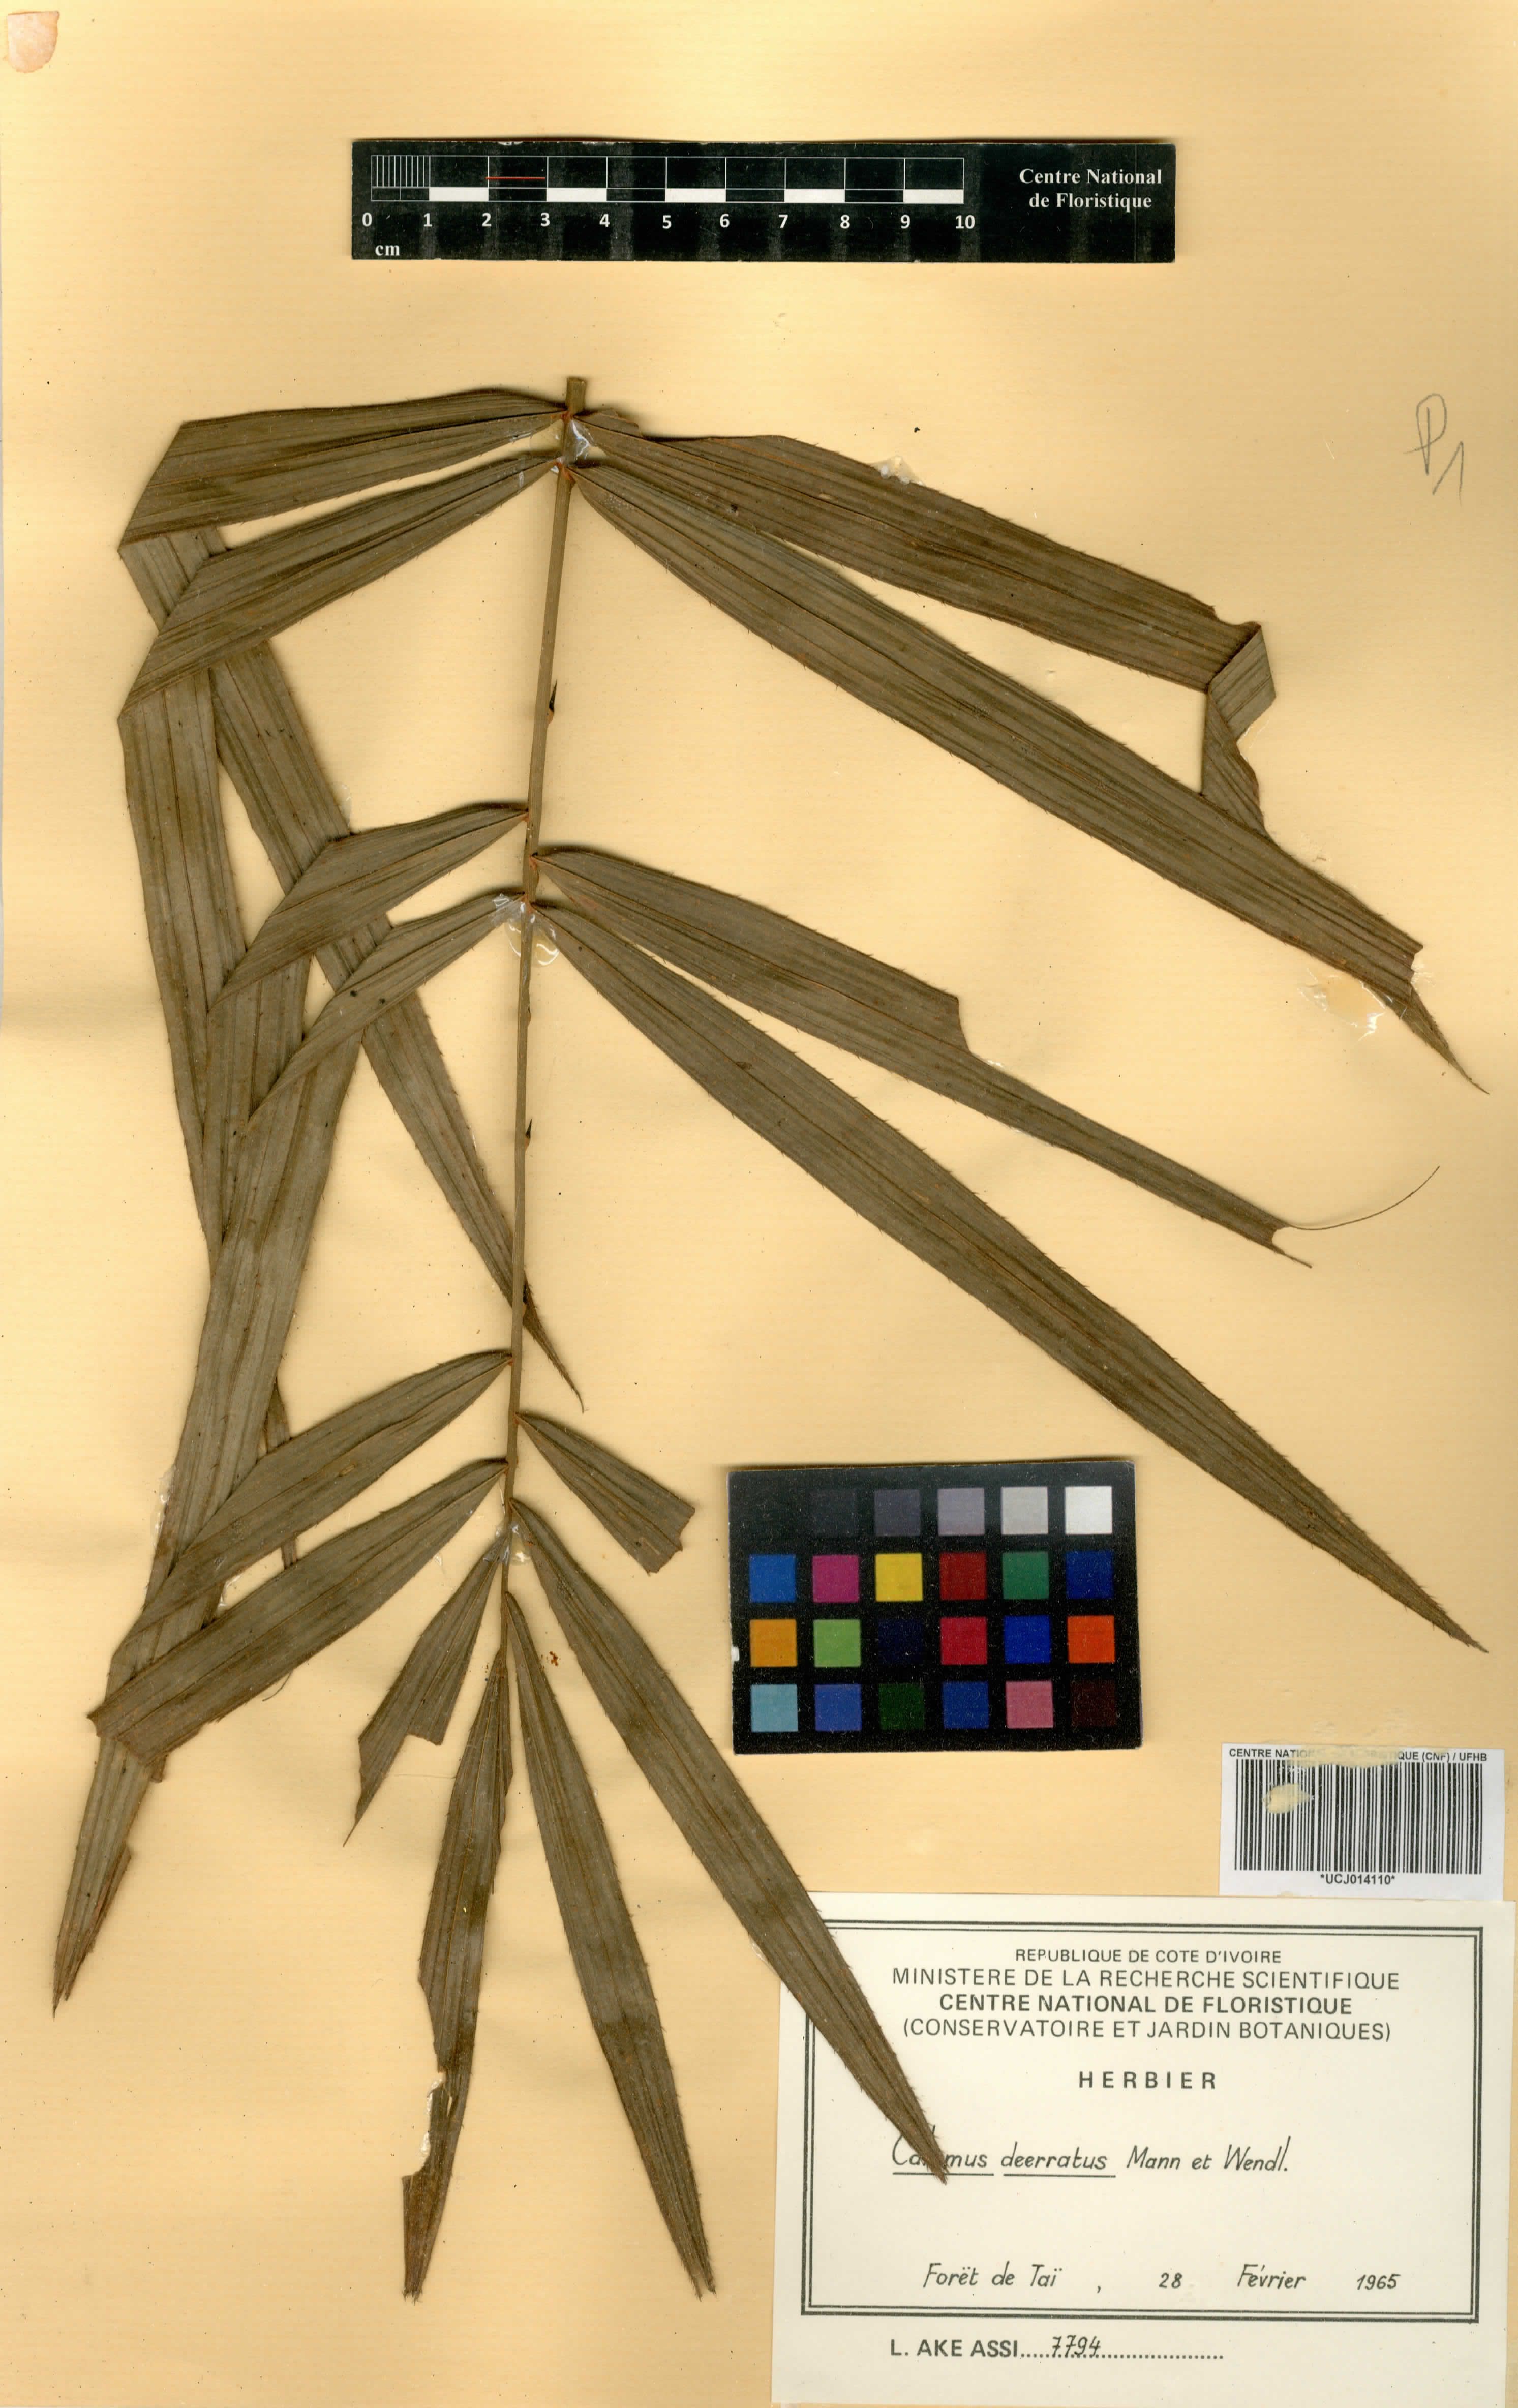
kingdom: Plantae
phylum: Tracheophyta
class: Liliopsida
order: Arecales
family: Arecaceae
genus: Calamus
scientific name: Calamus deerratus
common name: Rattan
